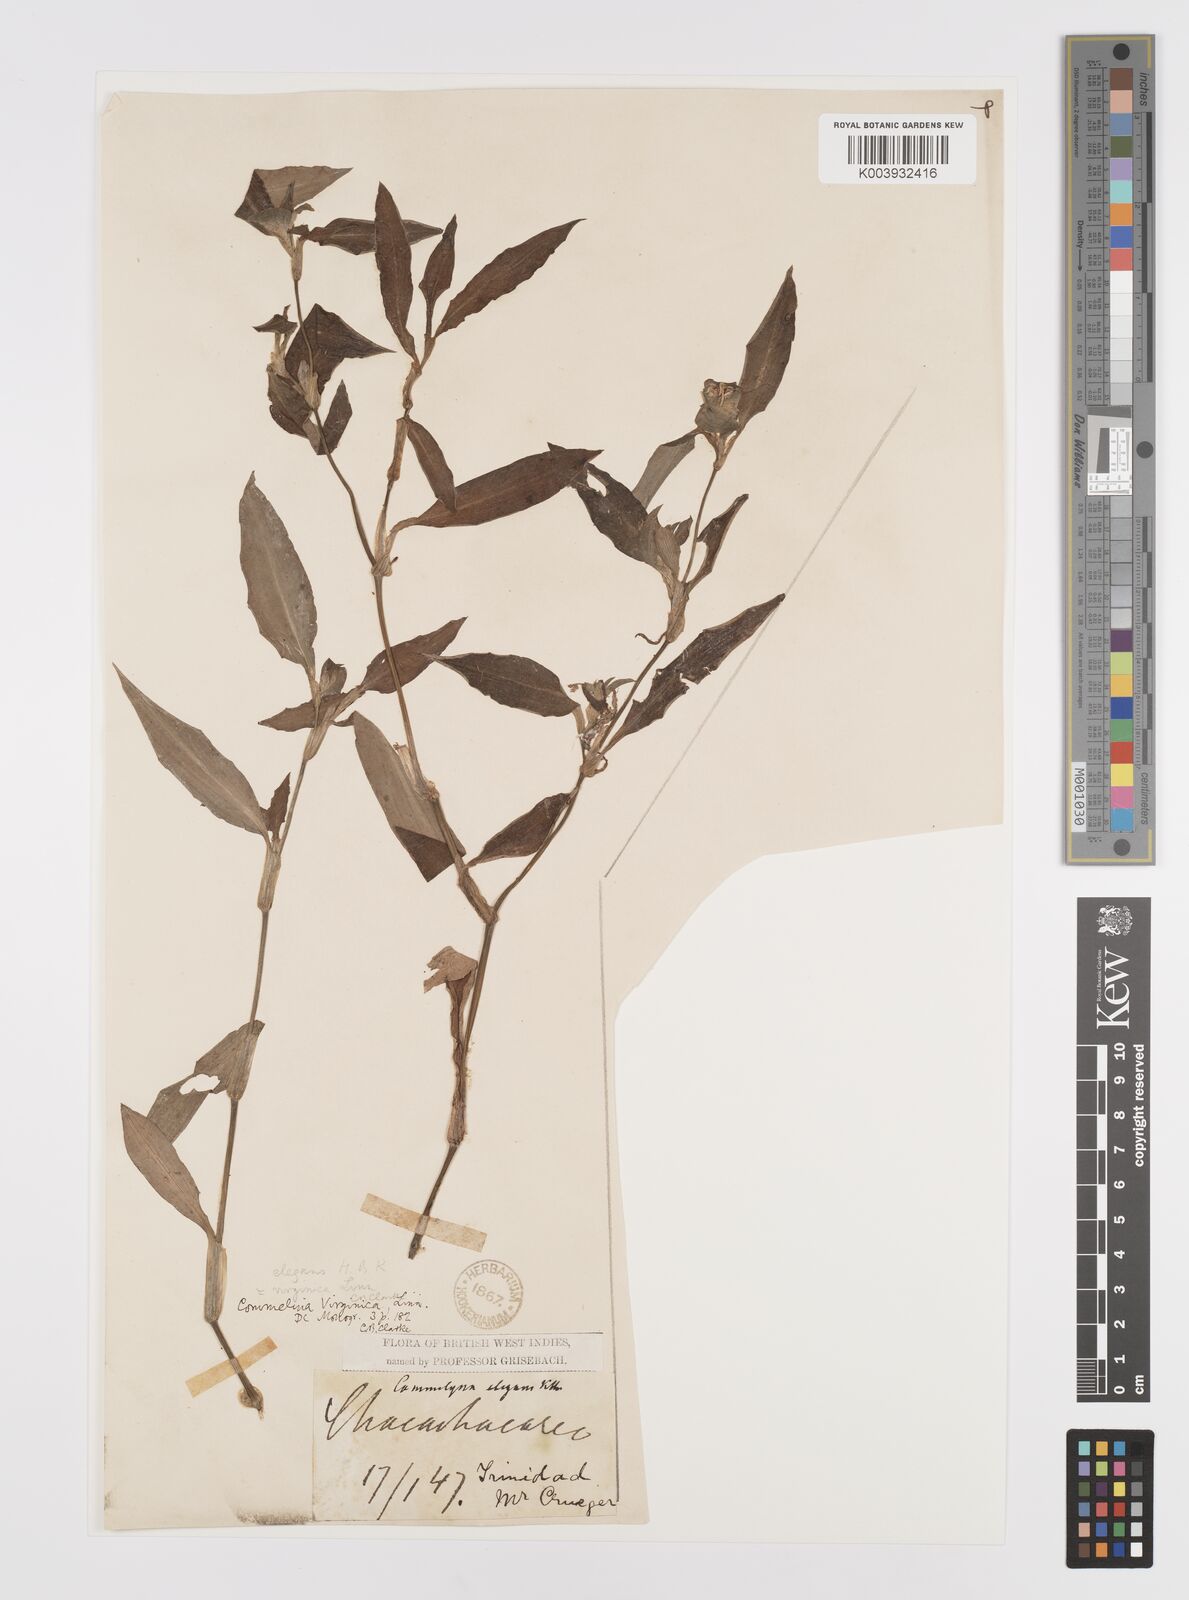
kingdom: Plantae
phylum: Tracheophyta
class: Liliopsida
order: Commelinales
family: Commelinaceae
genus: Commelina
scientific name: Commelina erecta
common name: Blousel blommetjie
